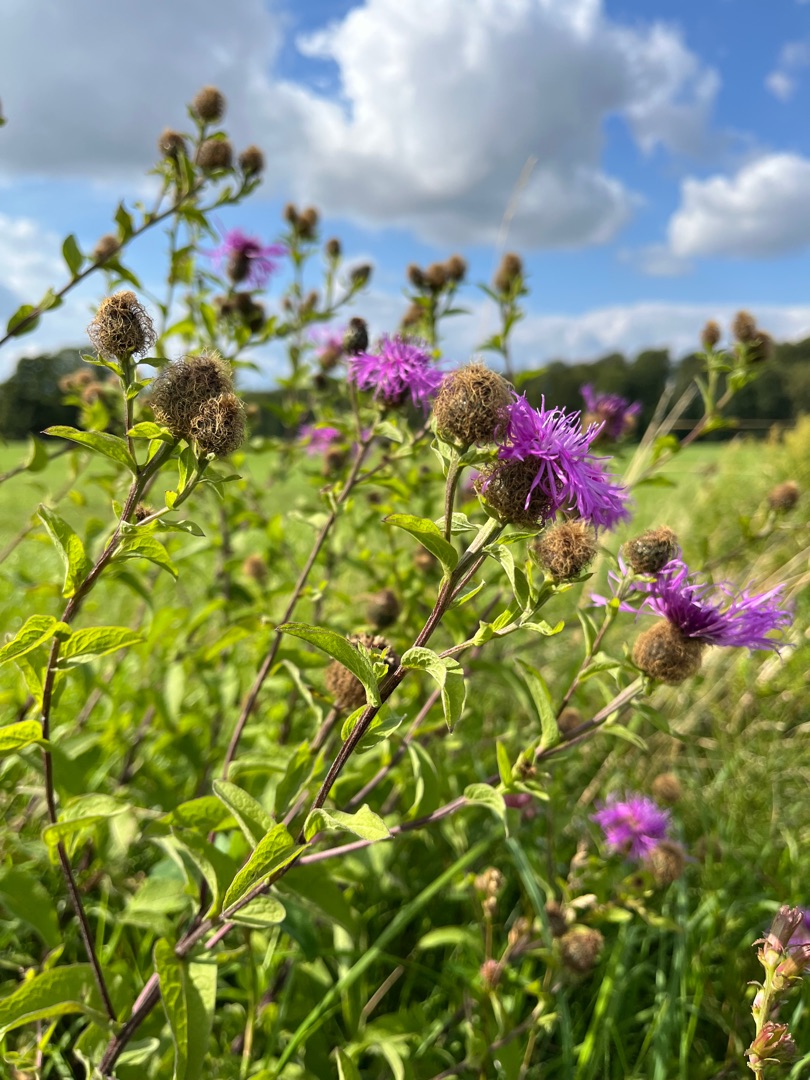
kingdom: Plantae
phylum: Tracheophyta
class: Magnoliopsida
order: Asterales
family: Asteraceae
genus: Centaurea
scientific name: Centaurea pseudophrygia
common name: Fjer-knopurt
